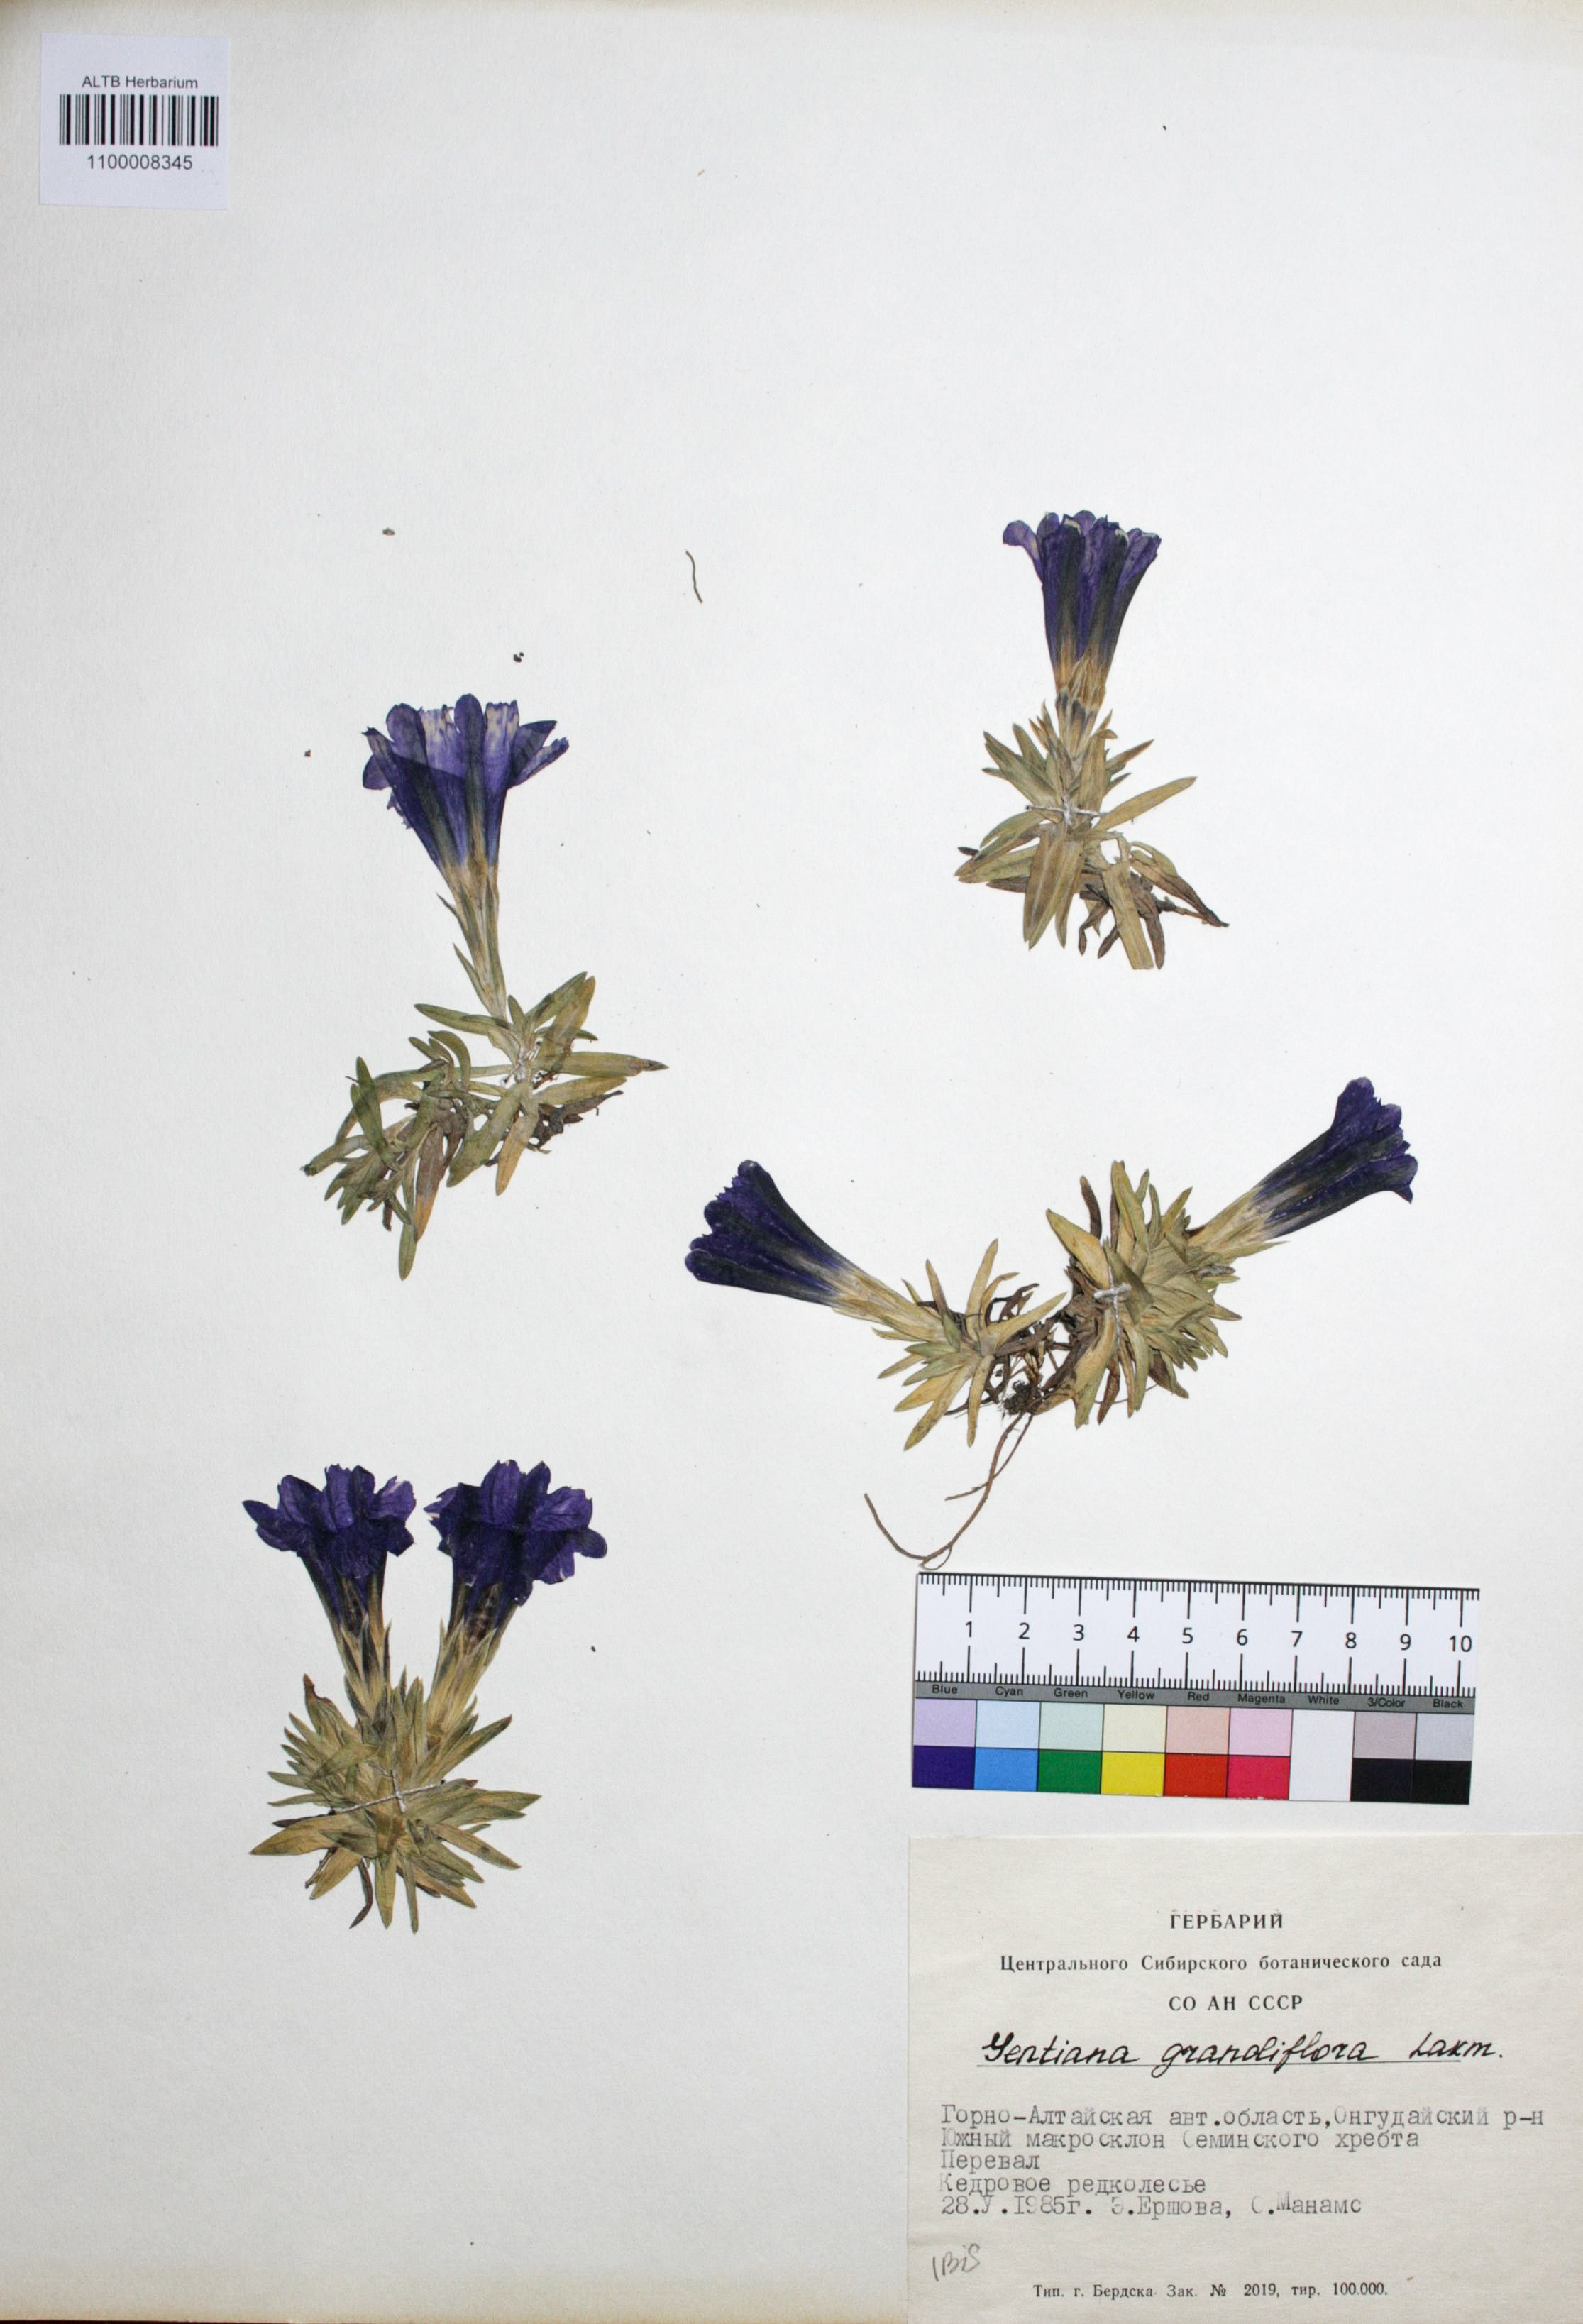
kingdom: Plantae
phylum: Tracheophyta
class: Magnoliopsida
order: Gentianales
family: Gentianaceae
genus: Gentiana
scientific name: Gentiana grandiflora
